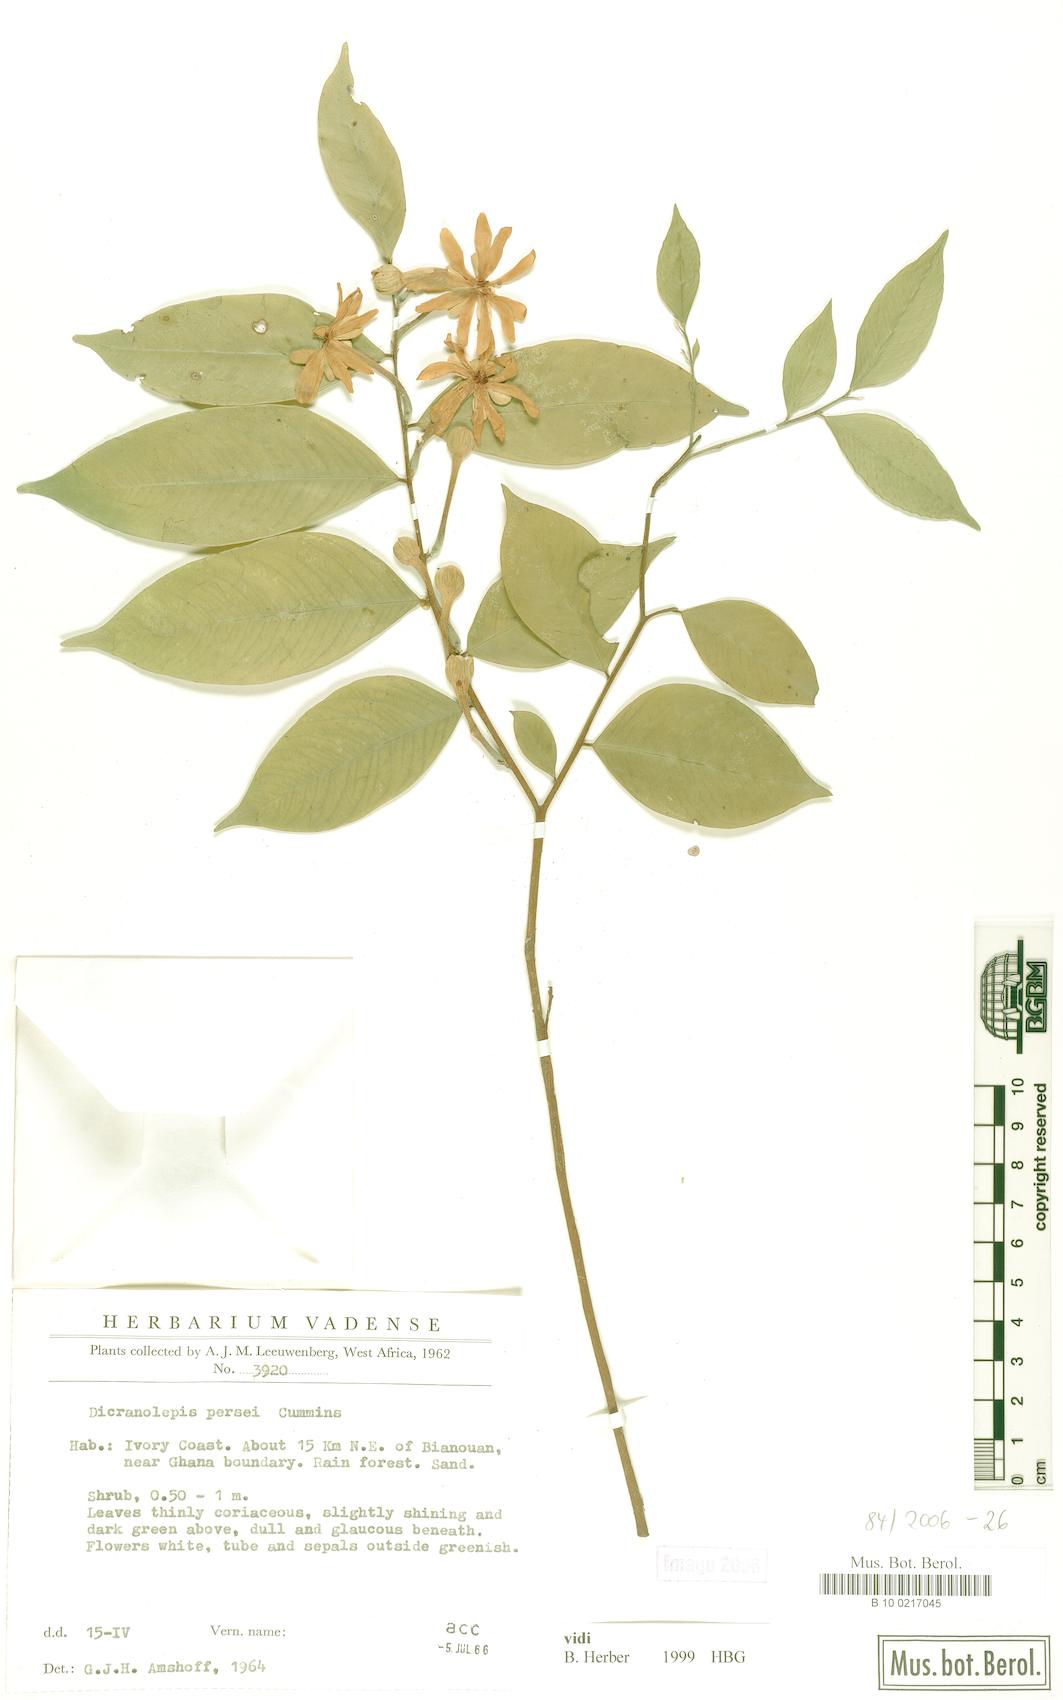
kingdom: Plantae
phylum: Tracheophyta
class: Magnoliopsida
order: Malvales
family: Thymelaeaceae
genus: Dicranolepis
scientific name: Dicranolepis persei
